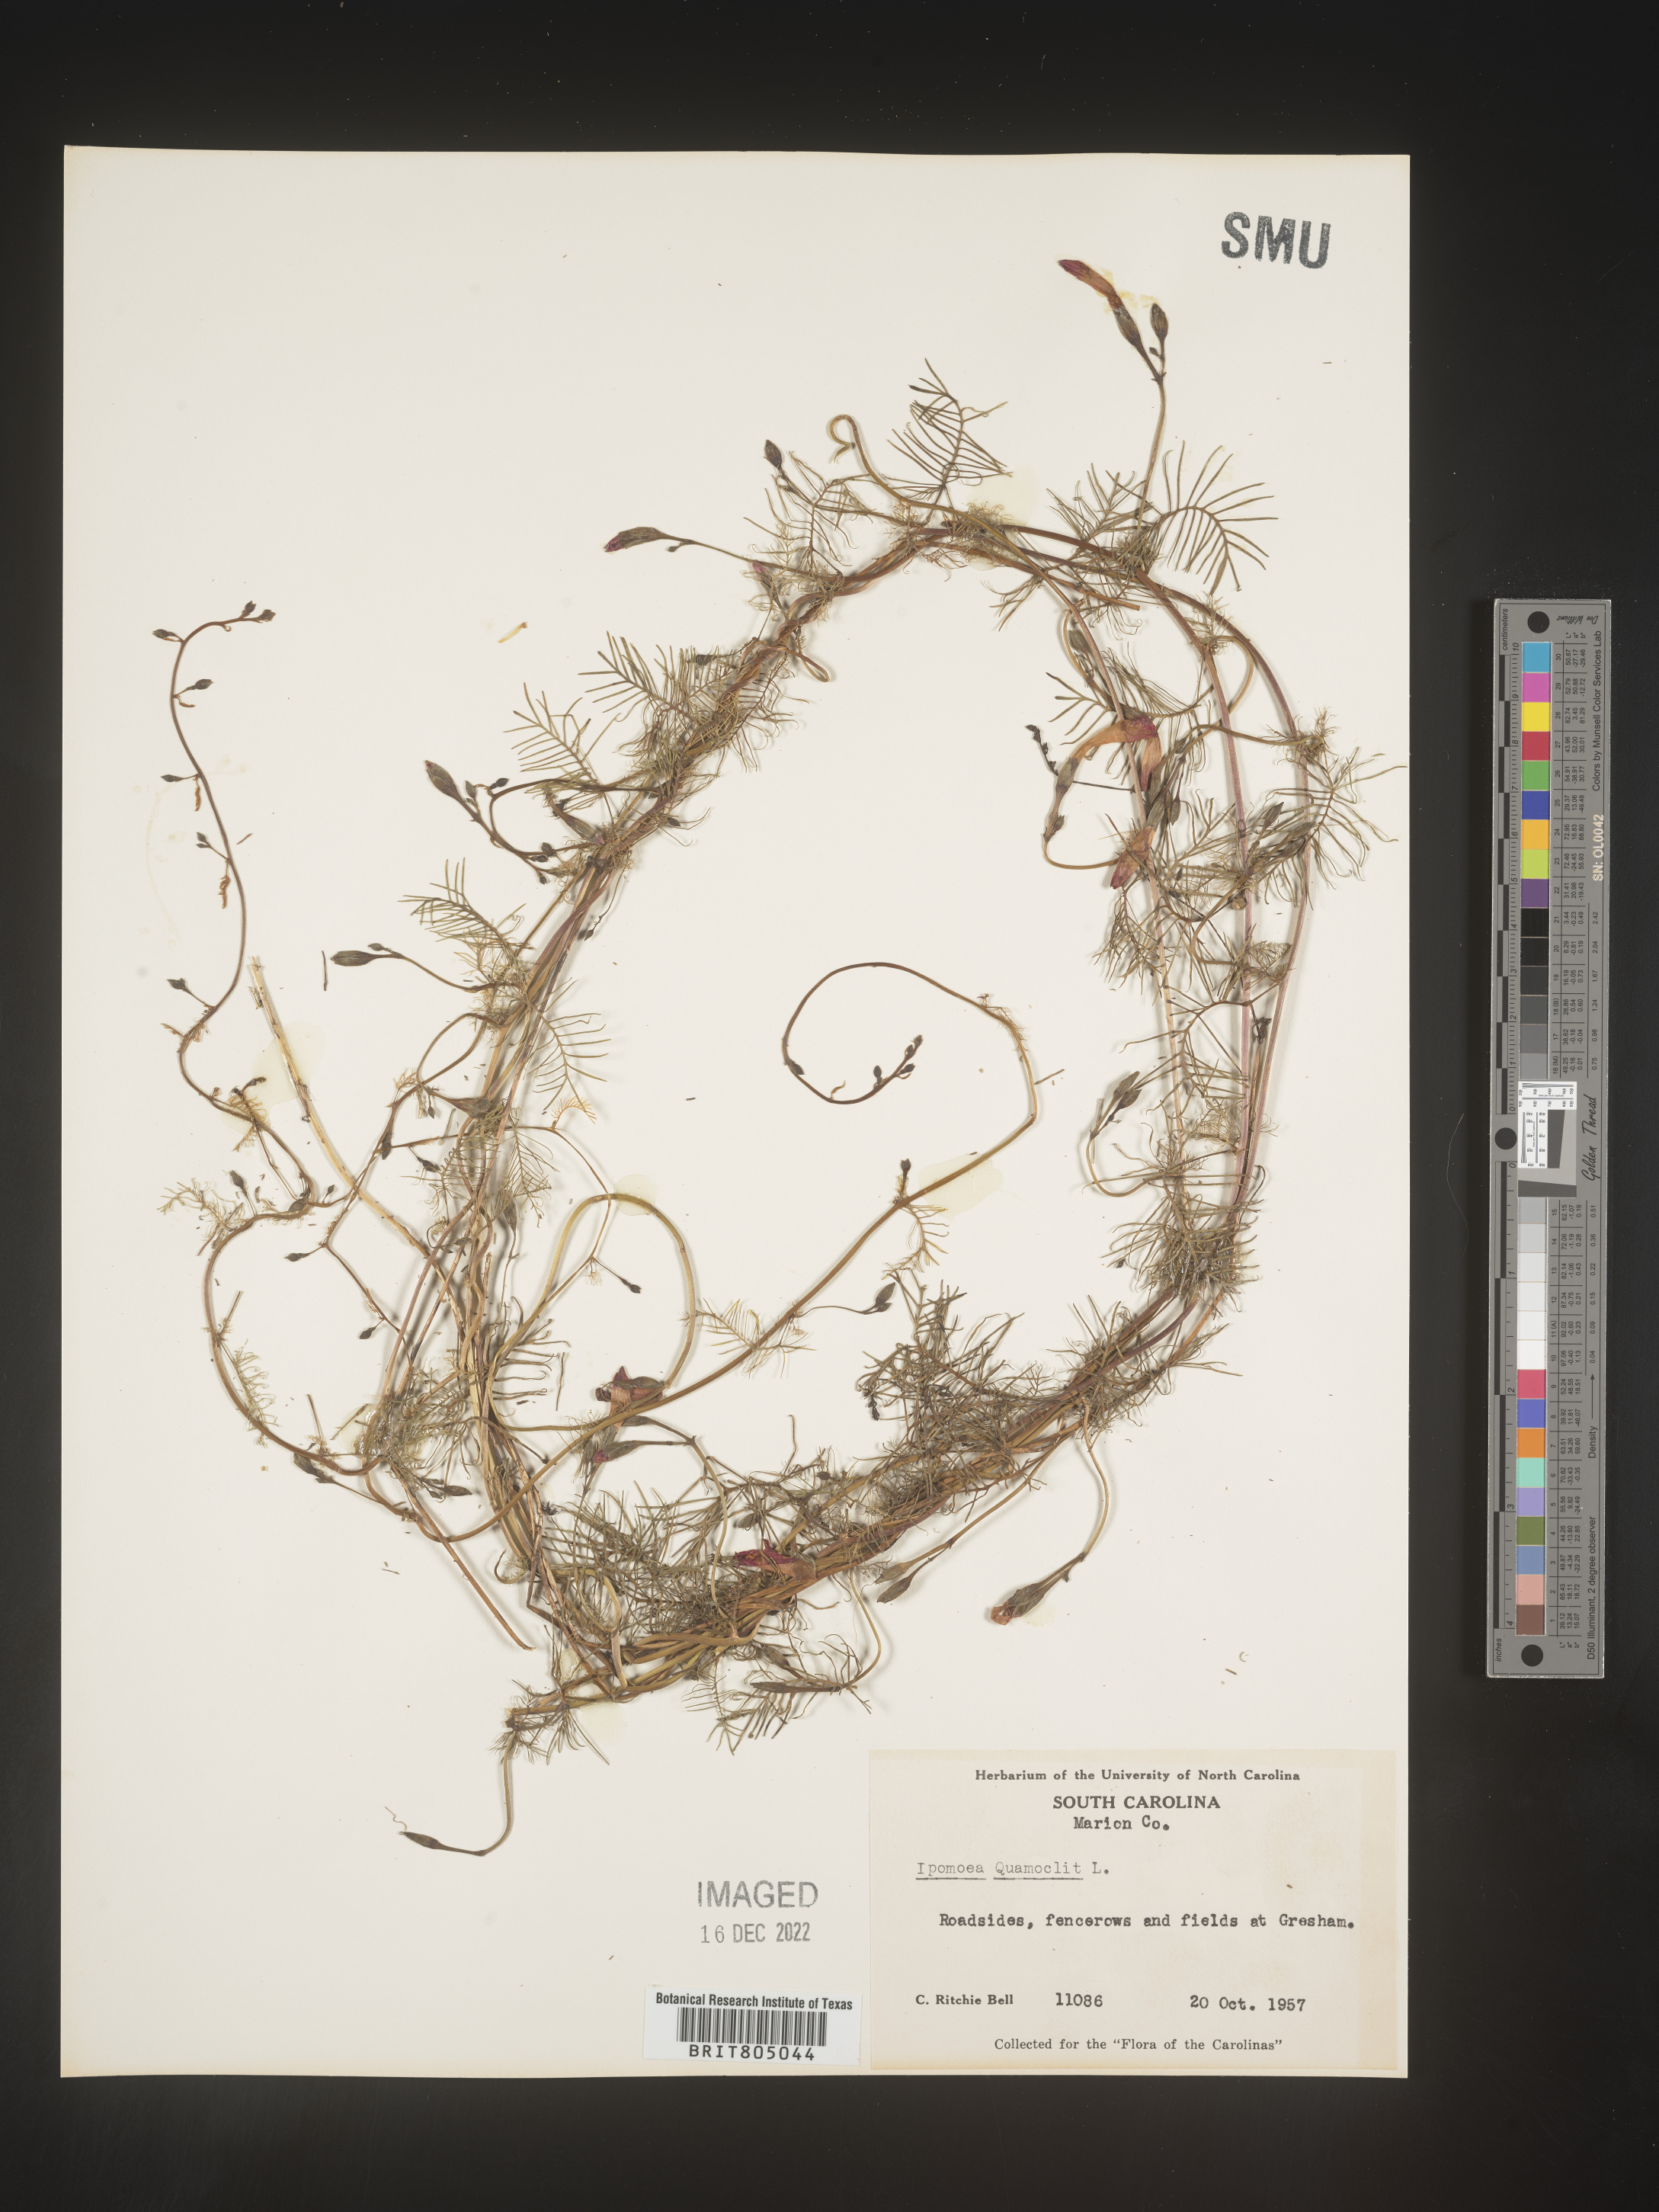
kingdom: Plantae
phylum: Tracheophyta
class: Magnoliopsida
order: Solanales
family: Convolvulaceae
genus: Ipomoea
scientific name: Ipomoea quamoclit
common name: Cypress vine
